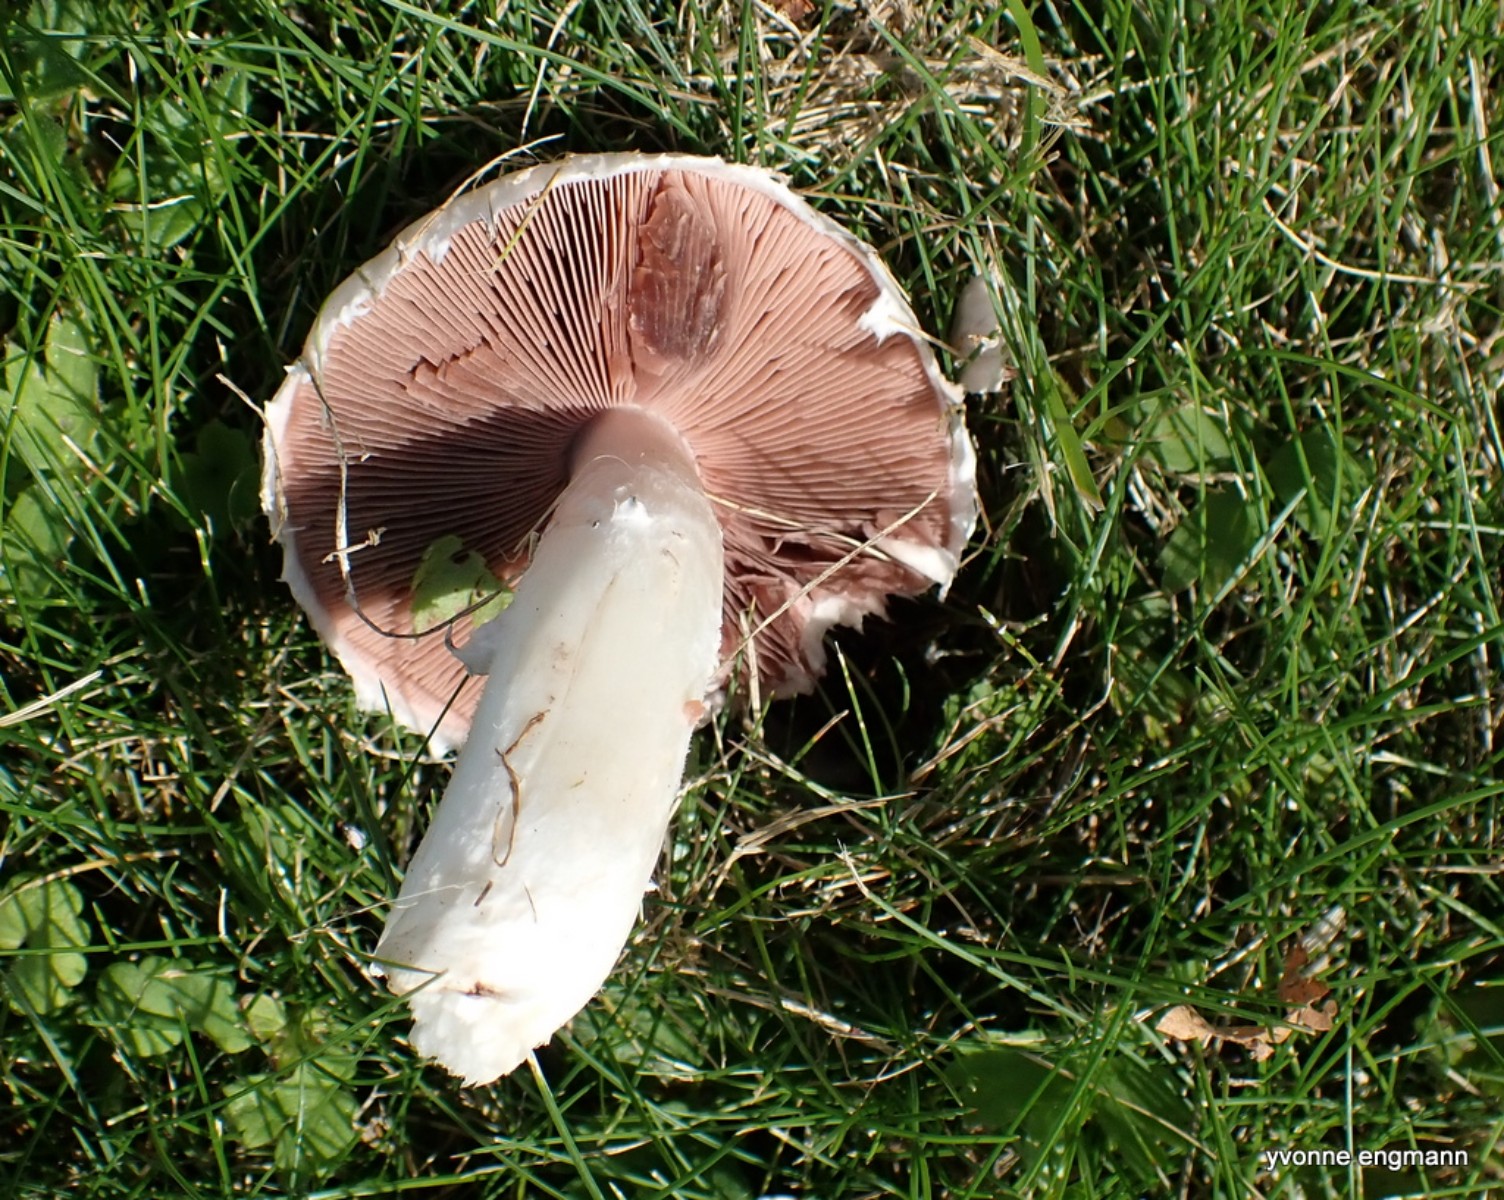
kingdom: Fungi
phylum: Basidiomycota
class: Agaricomycetes
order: Agaricales
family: Agaricaceae
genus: Agaricus
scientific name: Agaricus campestris
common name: mark-champignon
